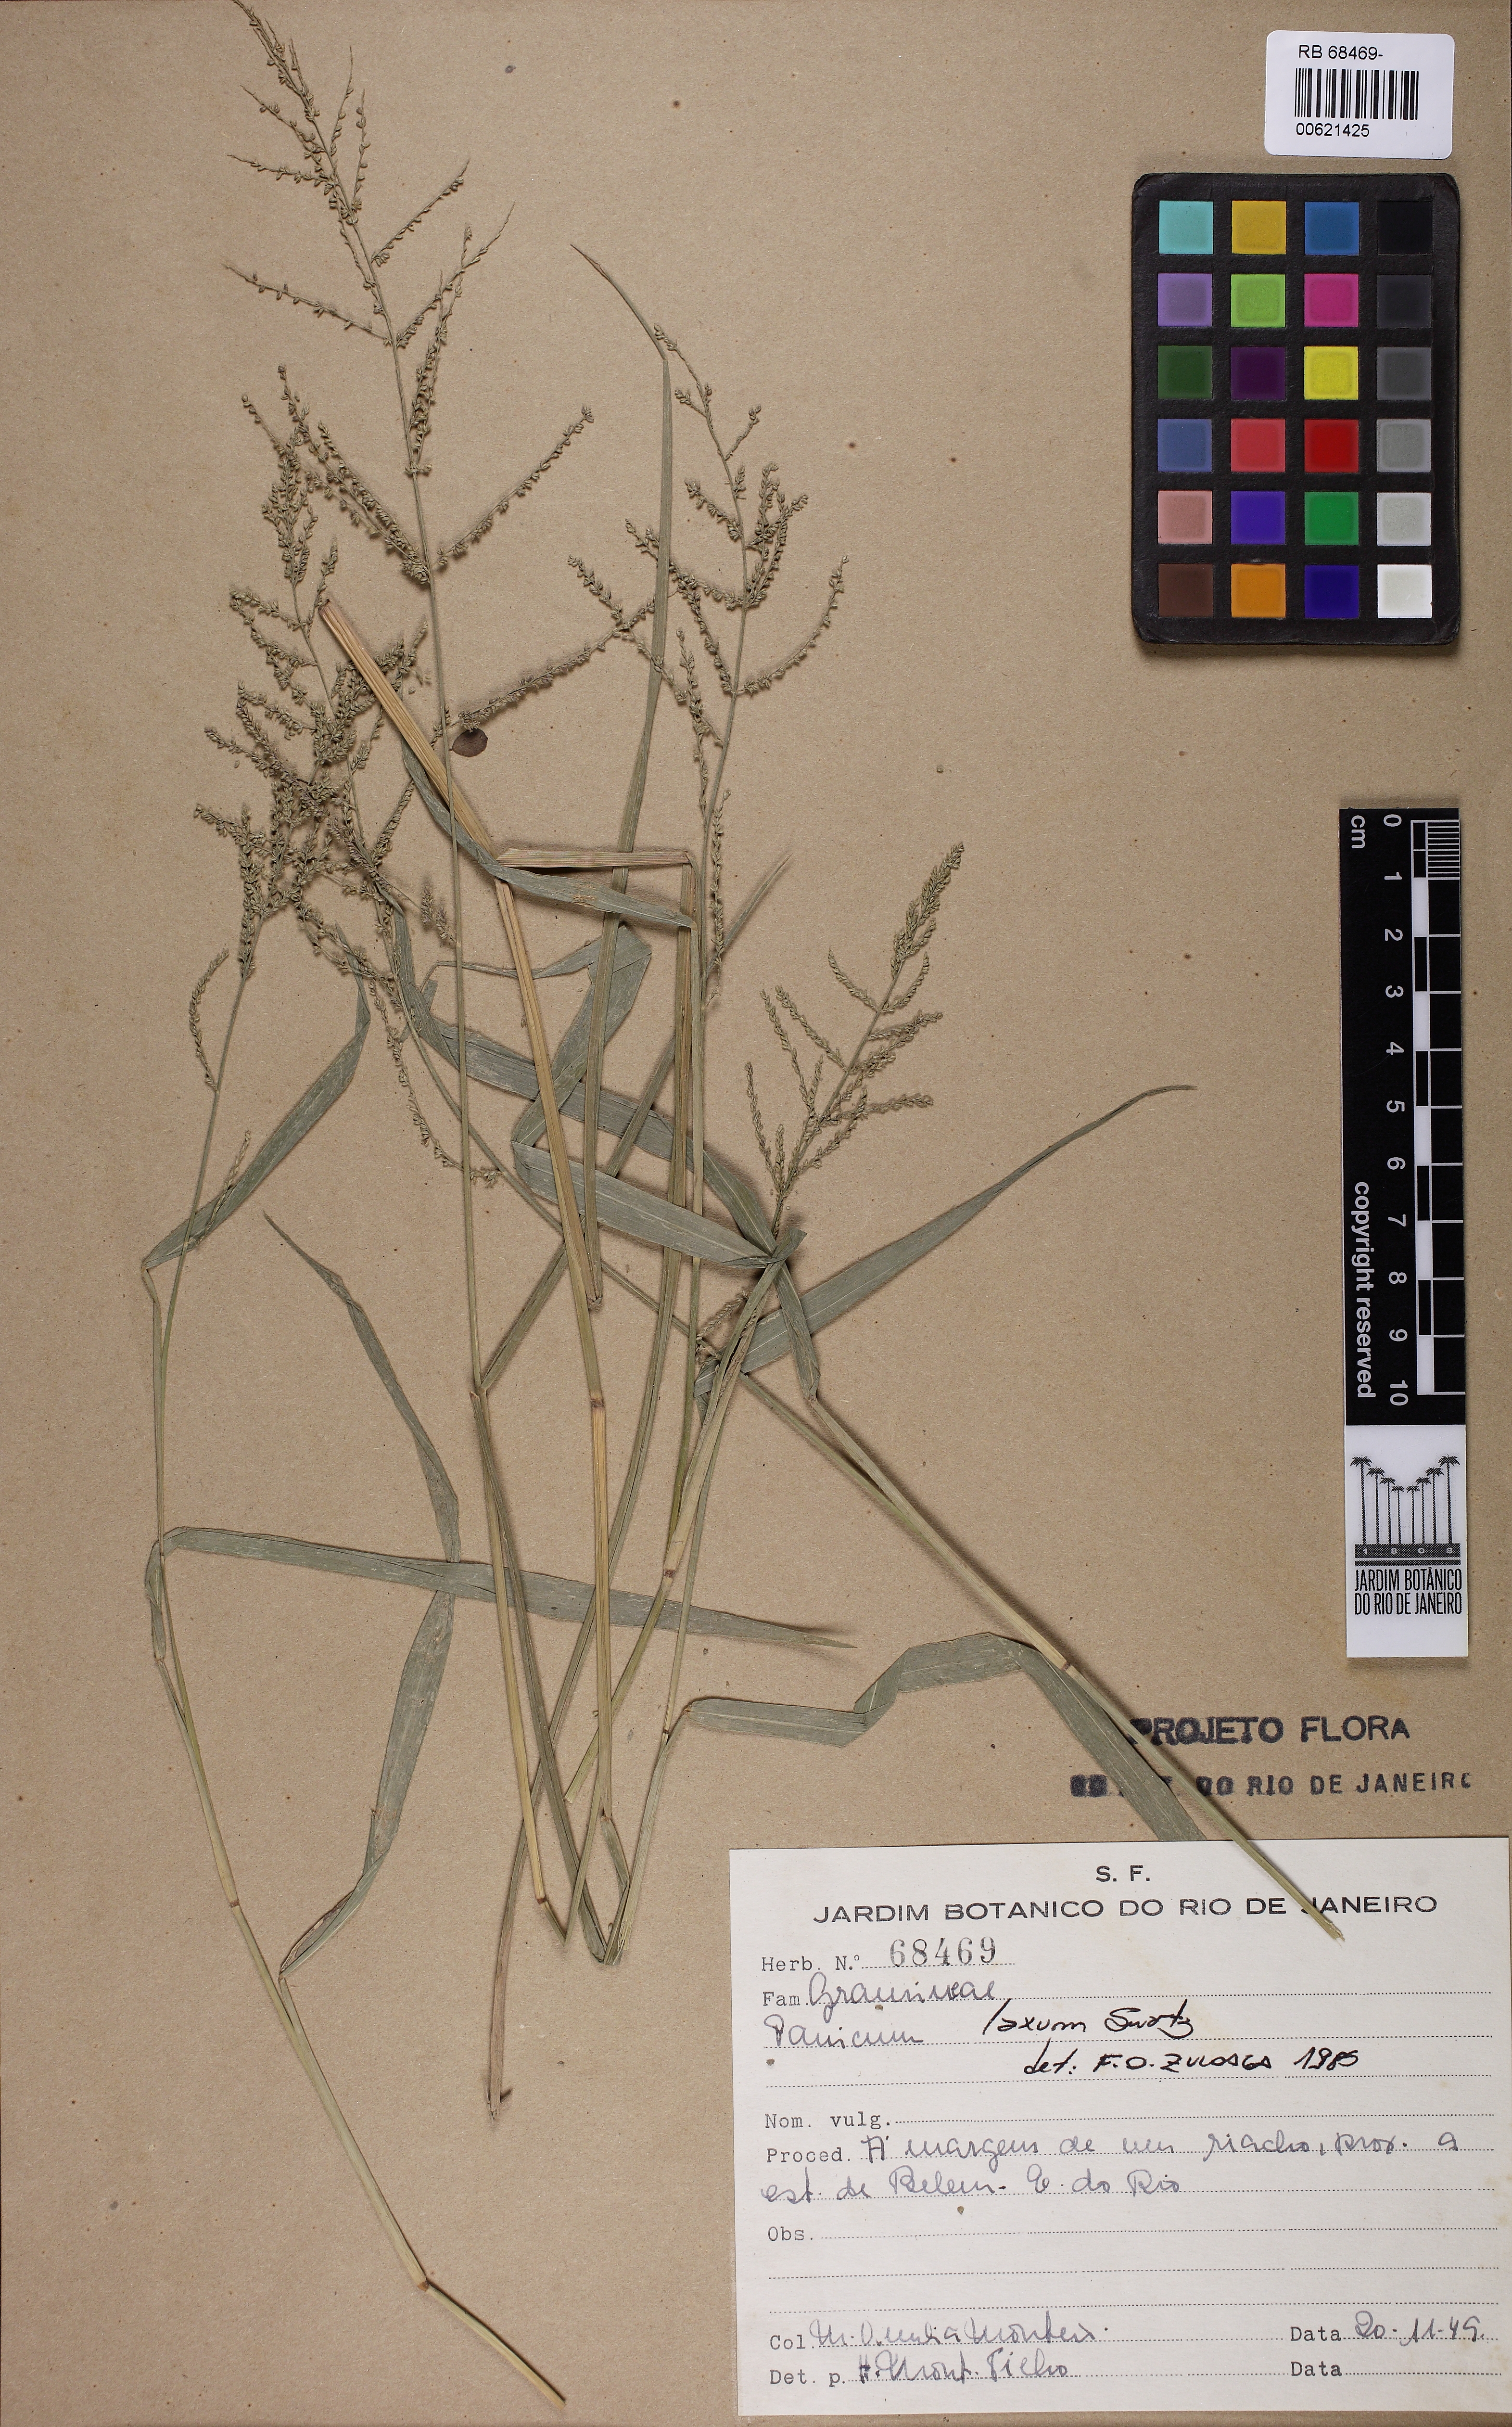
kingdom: Plantae
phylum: Tracheophyta
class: Liliopsida
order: Poales
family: Poaceae
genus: Steinchisma
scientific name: Steinchisma laxum
